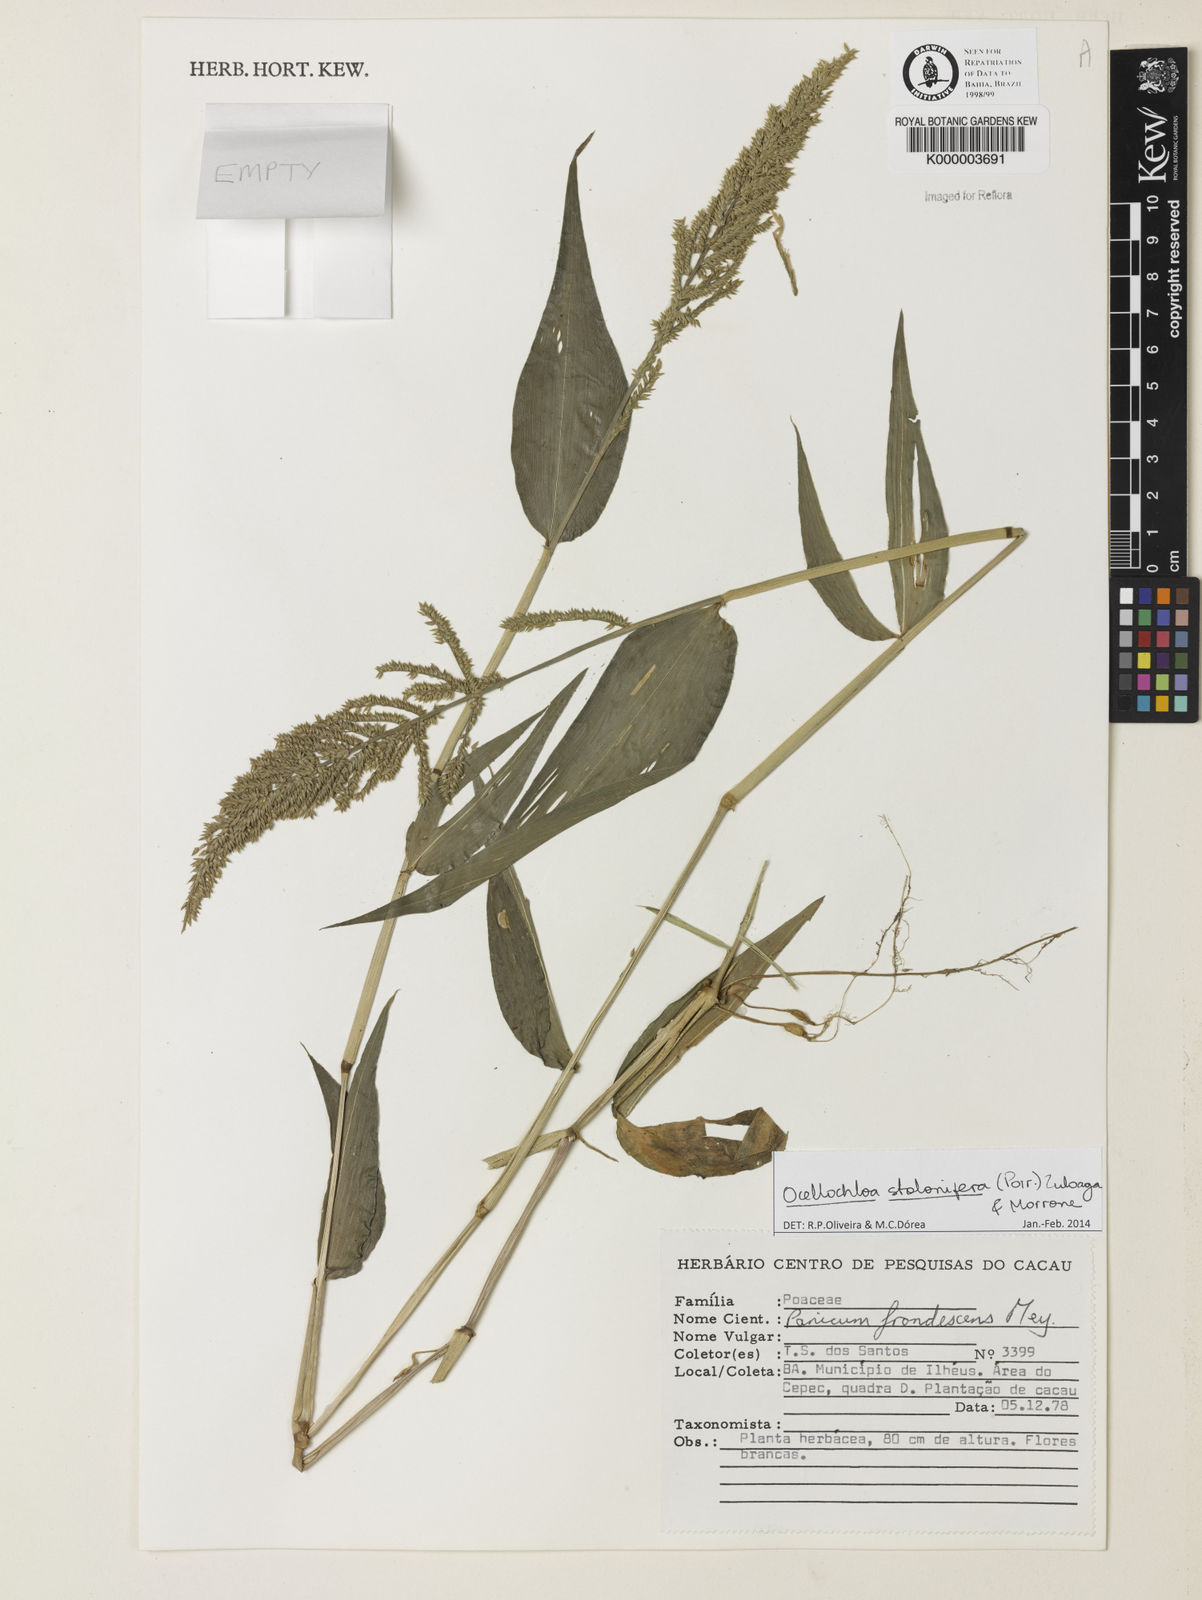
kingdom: Plantae
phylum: Tracheophyta
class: Liliopsida
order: Poales
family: Poaceae
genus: Ocellochloa
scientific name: Ocellochloa stolonifera
